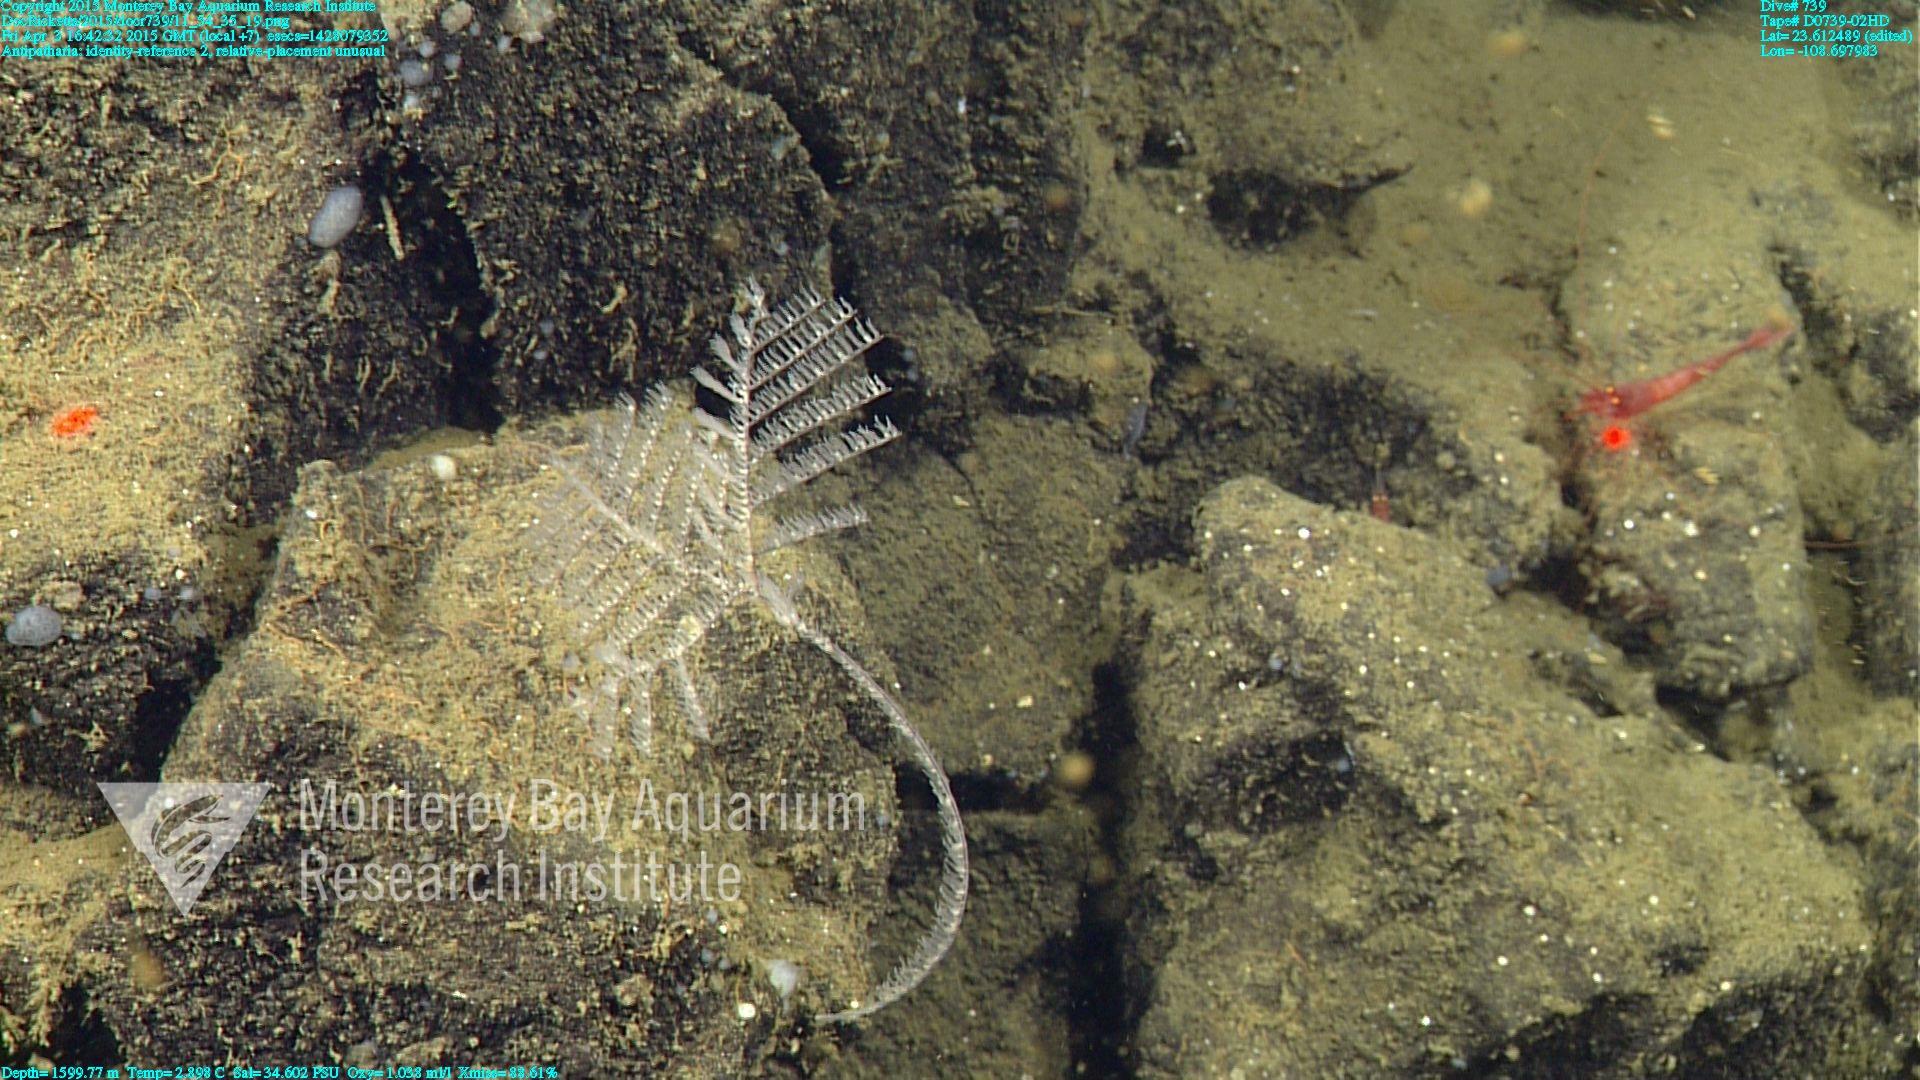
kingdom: Animalia
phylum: Cnidaria
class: Anthozoa
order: Antipatharia
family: Schizopathidae
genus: Umbellapathes
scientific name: Umbellapathes
